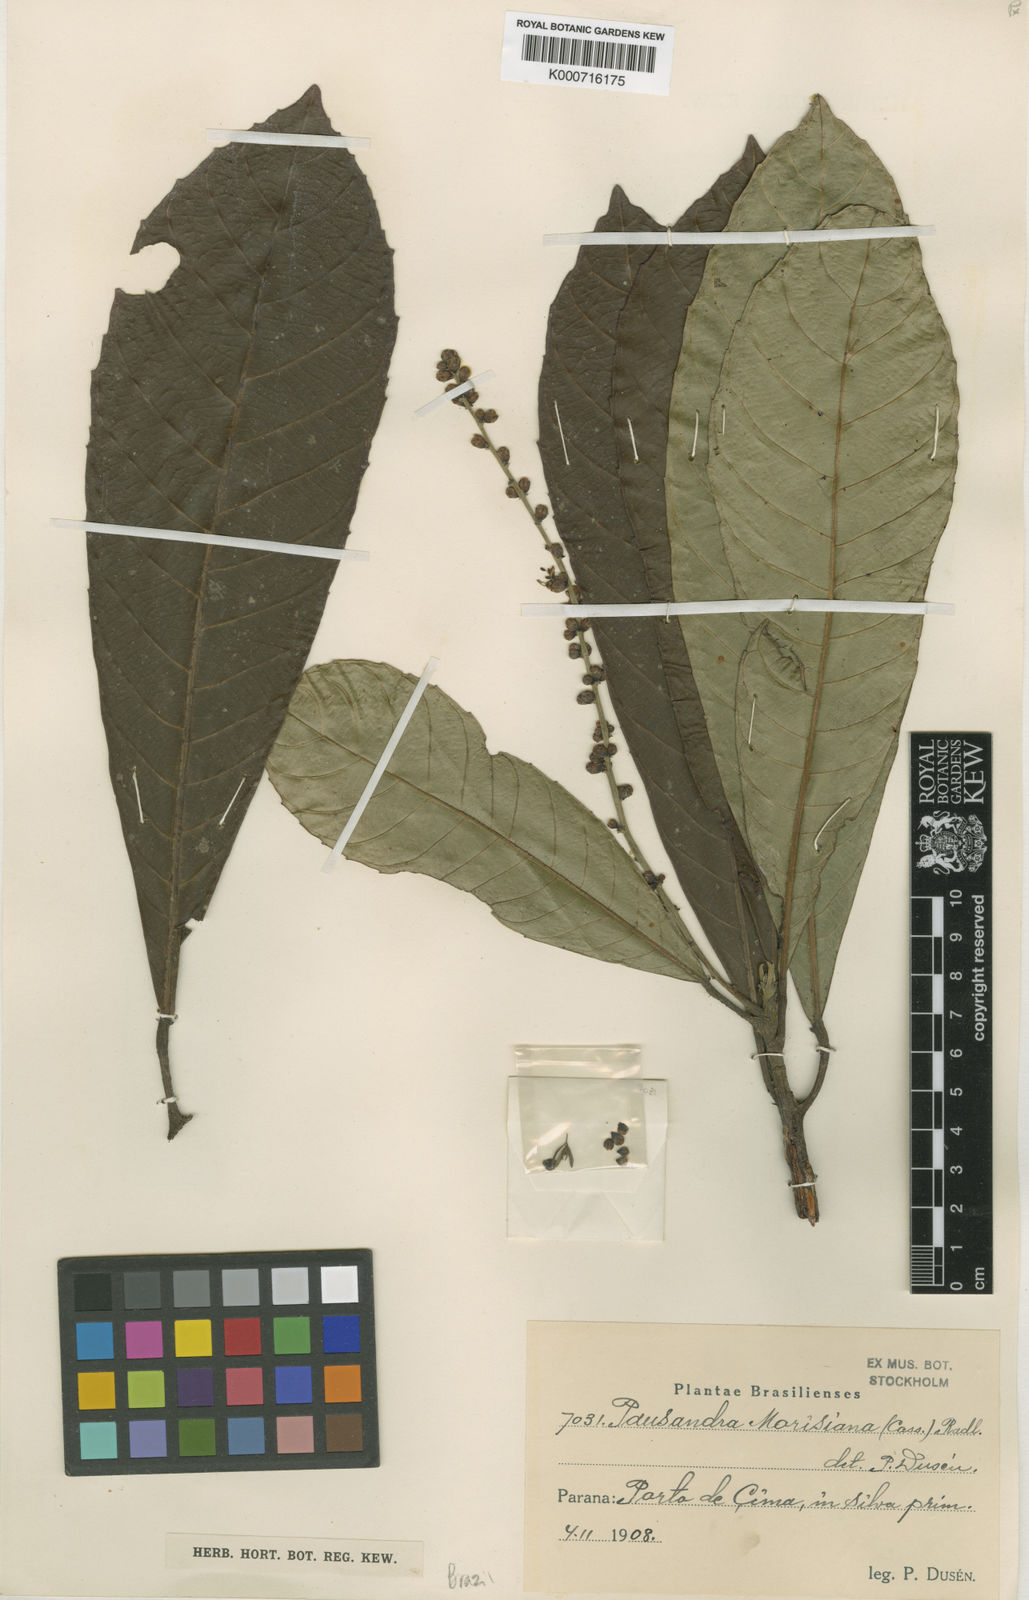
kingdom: Plantae
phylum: Tracheophyta
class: Magnoliopsida
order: Malpighiales
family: Euphorbiaceae
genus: Pausandra
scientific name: Pausandra morisiana
